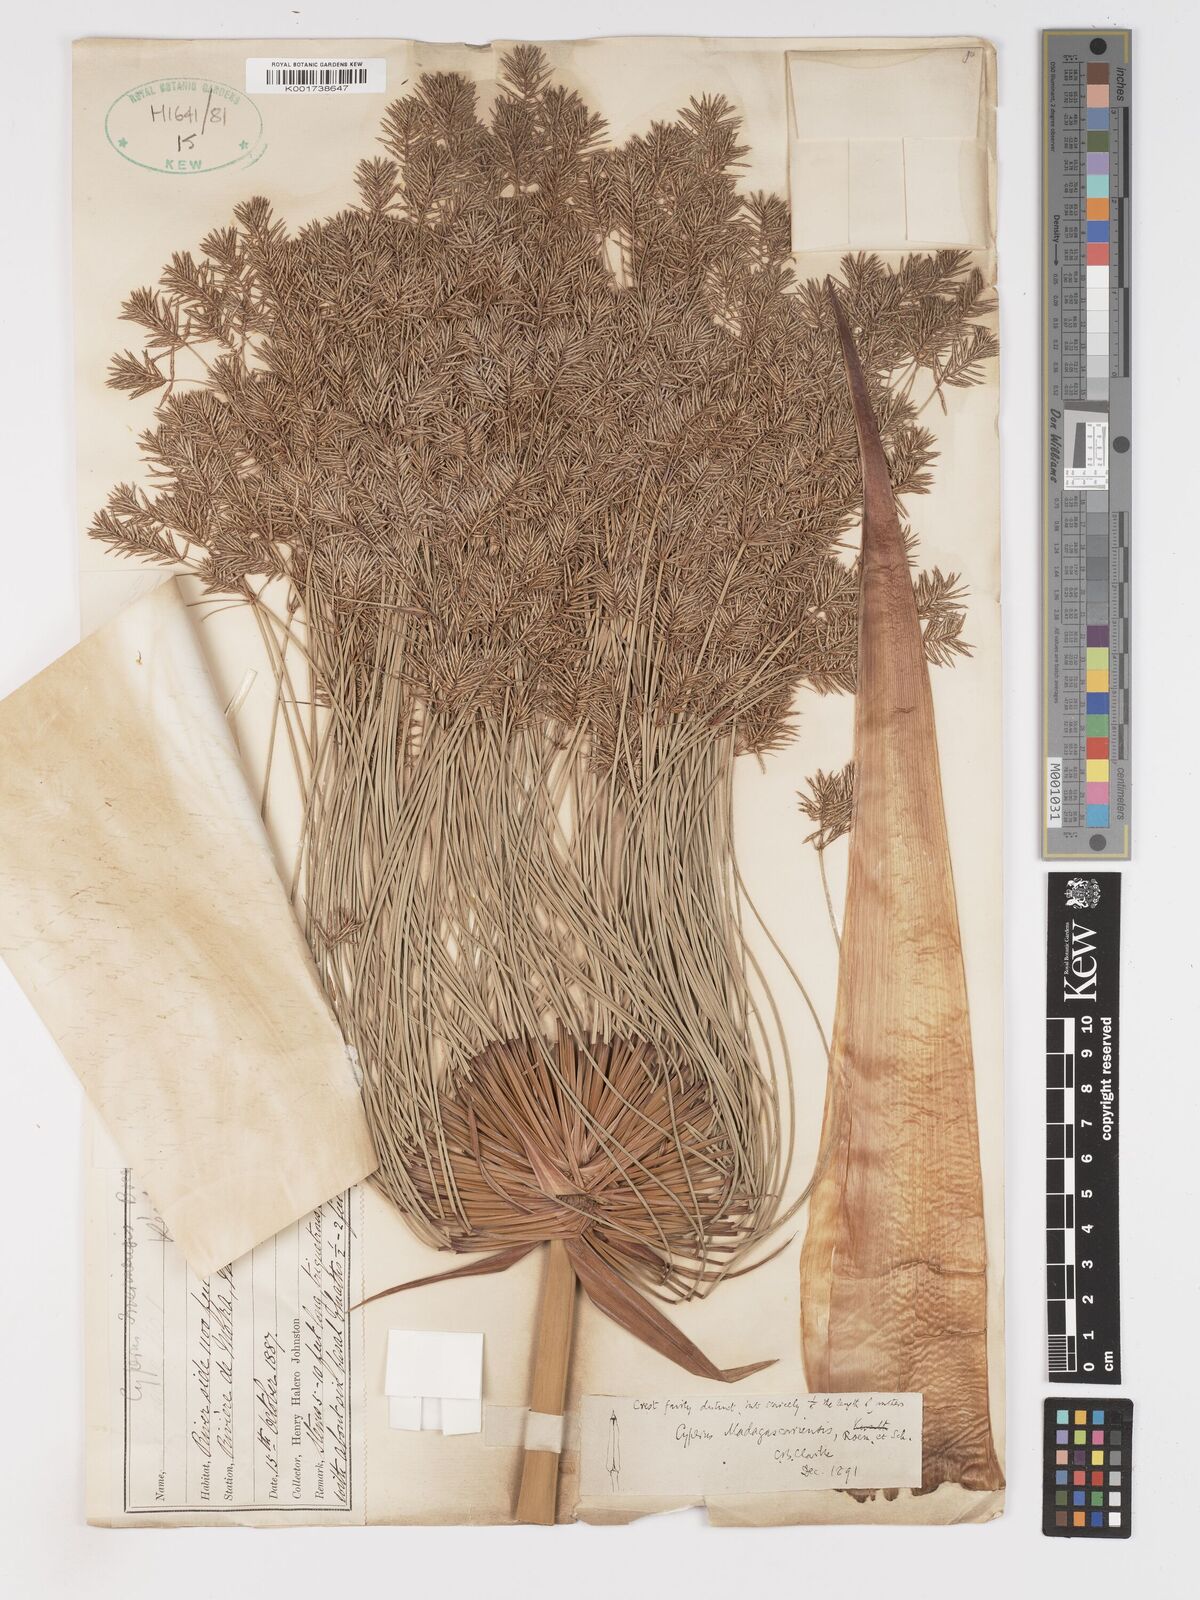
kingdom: Plantae
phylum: Tracheophyta
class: Liliopsida
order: Poales
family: Cyperaceae
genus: Cyperus
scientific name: Cyperus papyrus
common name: Papyrus
